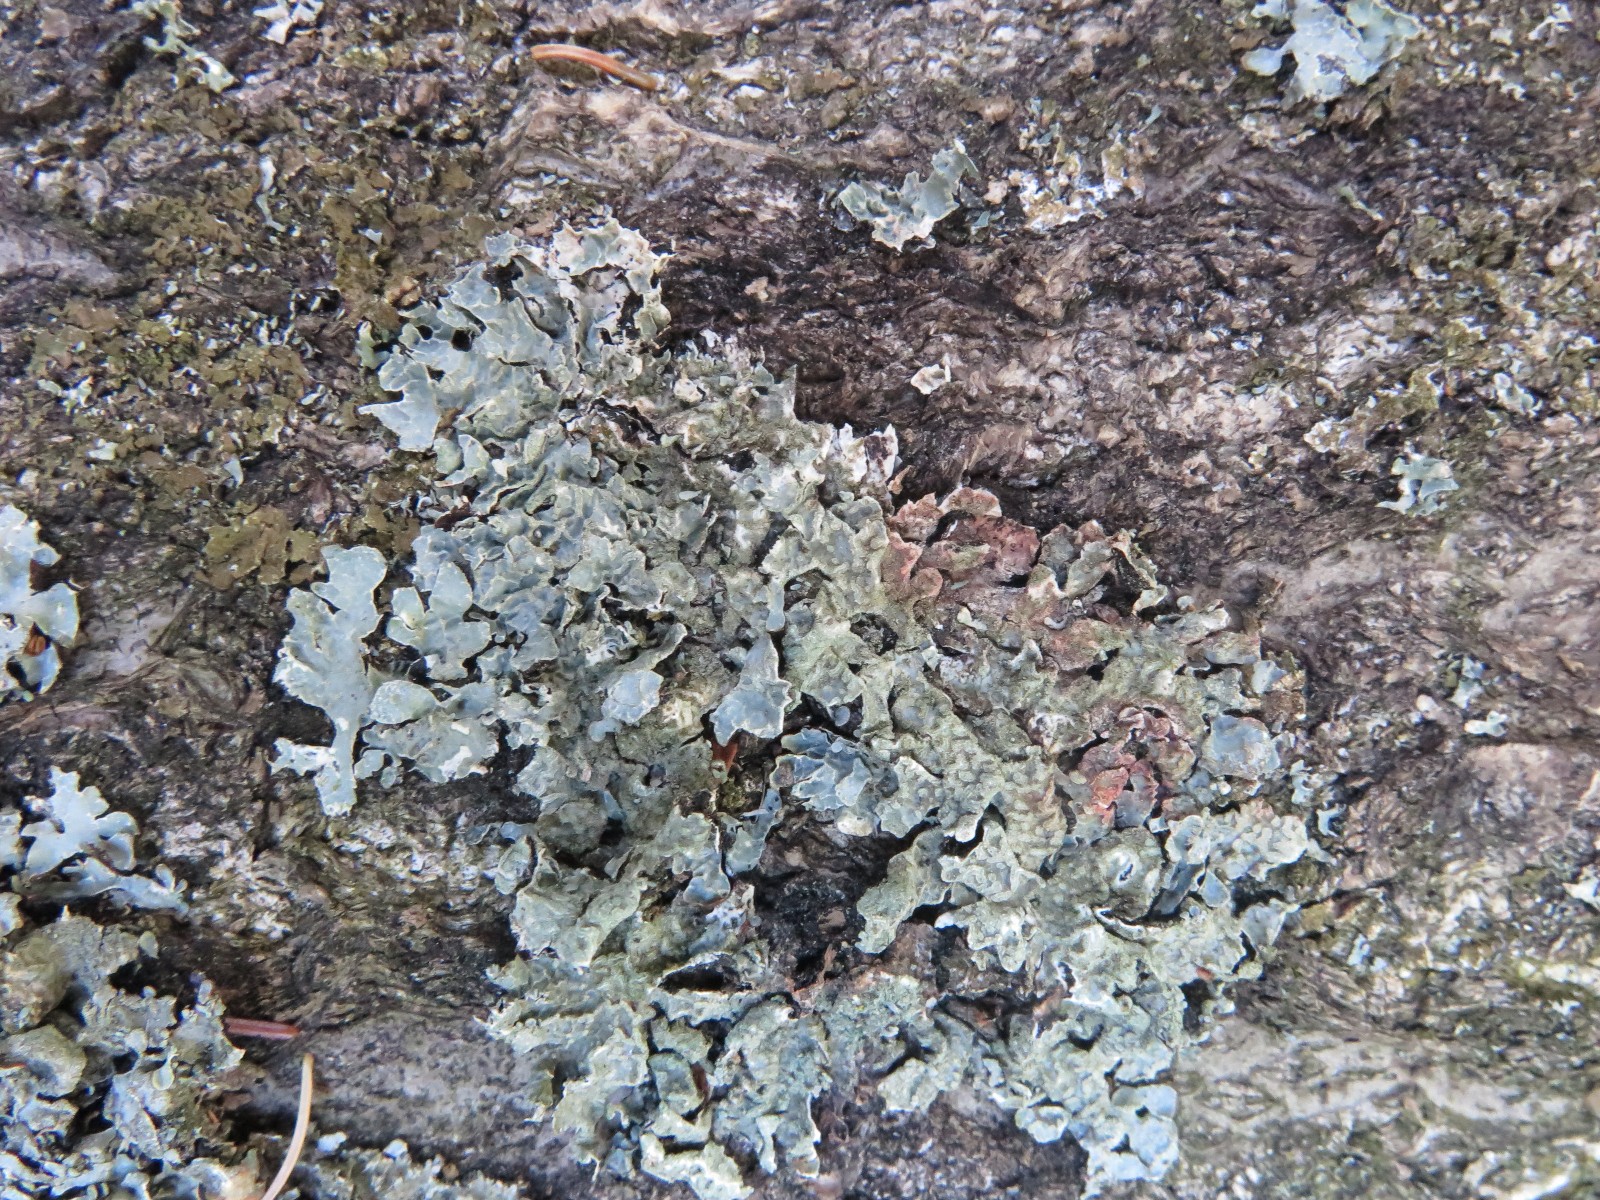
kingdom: Fungi
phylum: Ascomycota
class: Lecanoromycetes
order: Lecanorales
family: Parmeliaceae
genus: Parmelia
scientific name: Parmelia sulcata
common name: rynket skållav
